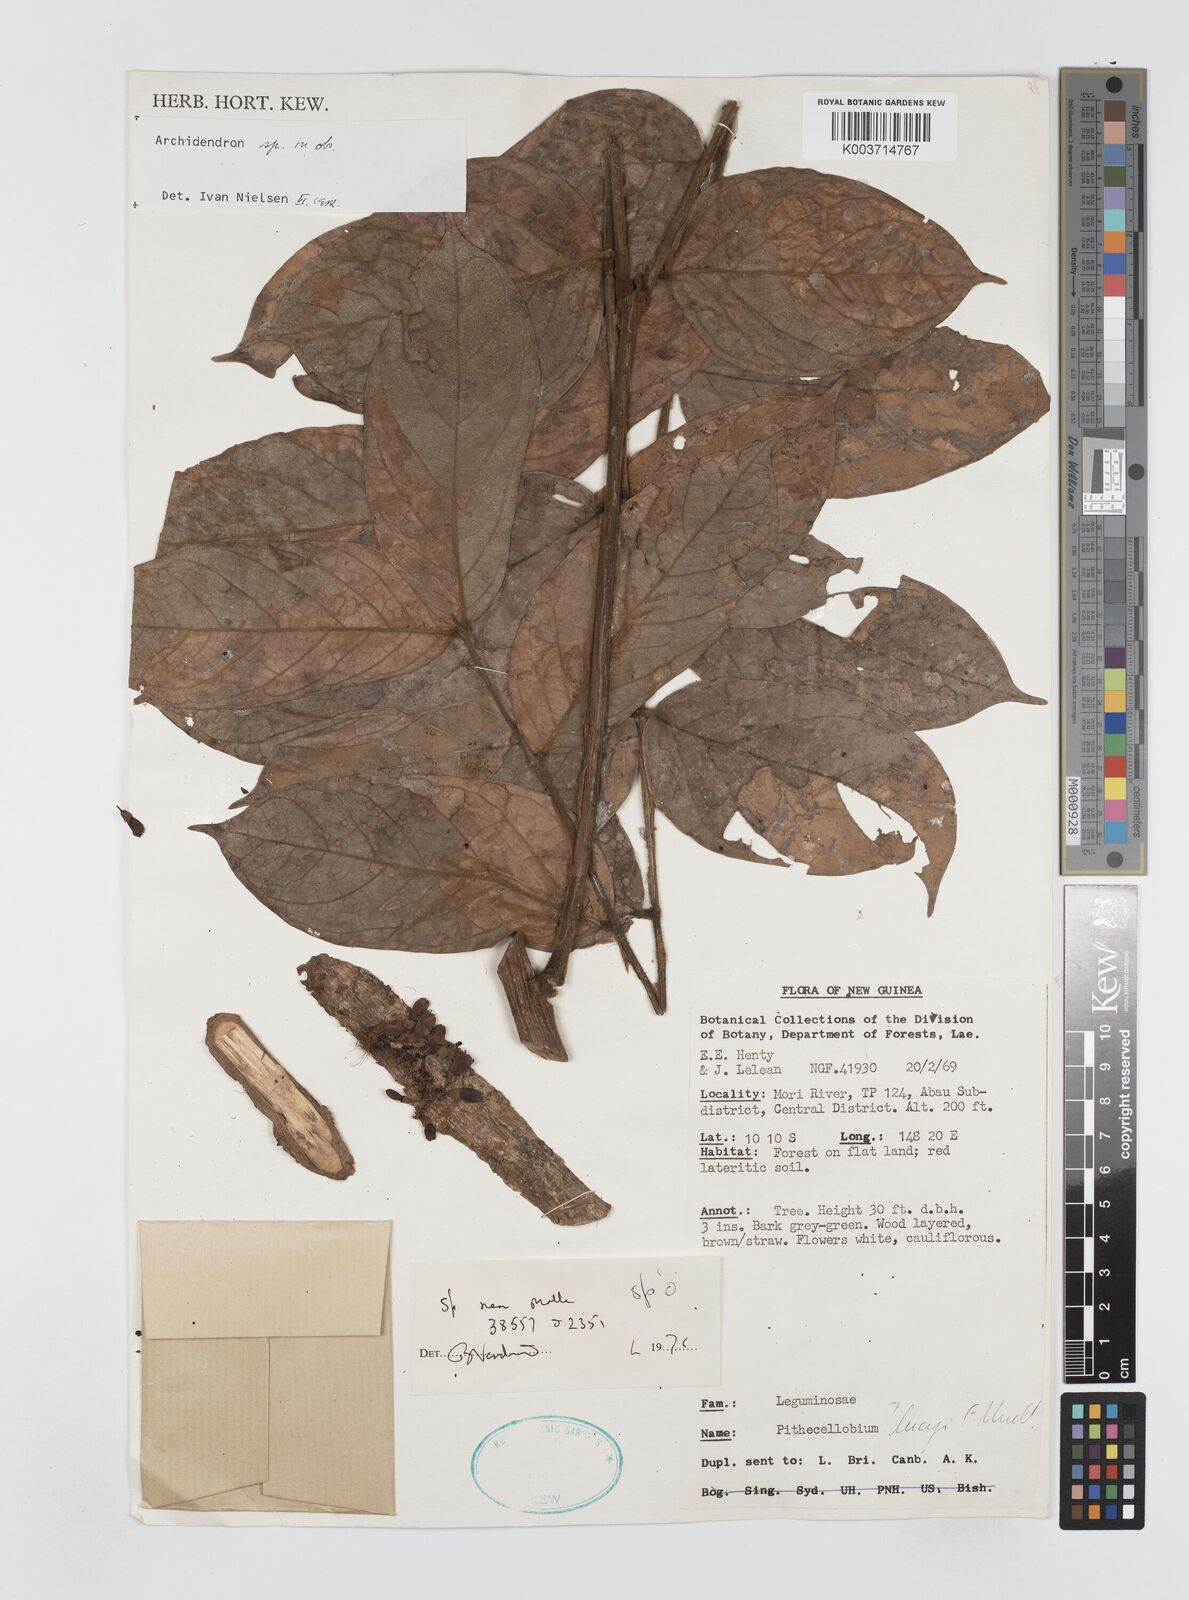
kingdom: Plantae
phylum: Tracheophyta
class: Magnoliopsida
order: Fabales
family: Fabaceae
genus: Archidendron
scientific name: Archidendron molle
